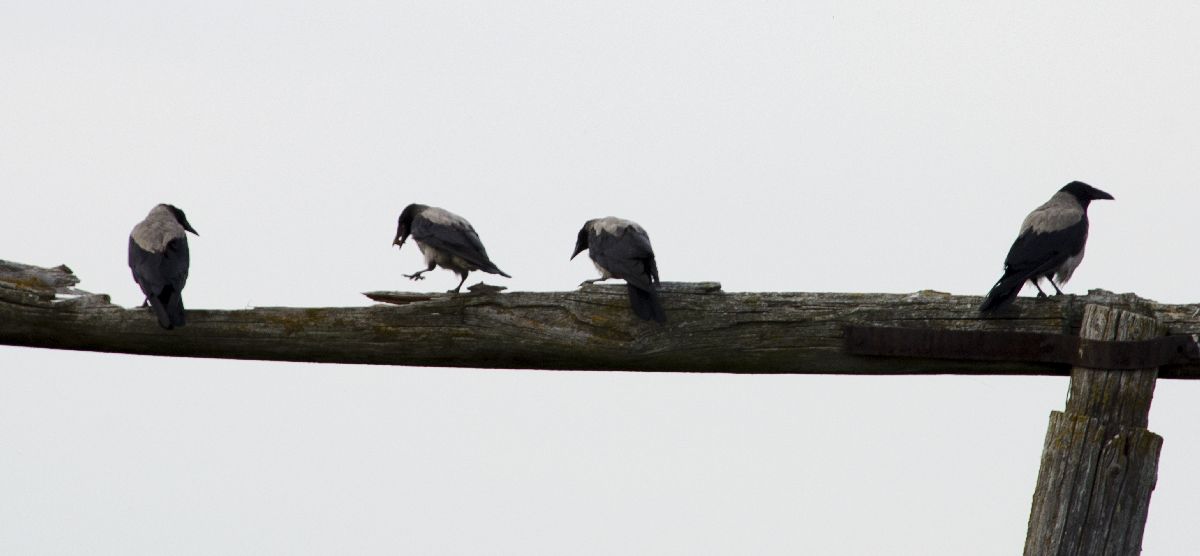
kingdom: Animalia
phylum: Chordata
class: Aves
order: Passeriformes
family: Corvidae
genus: Corvus
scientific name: Corvus cornix
